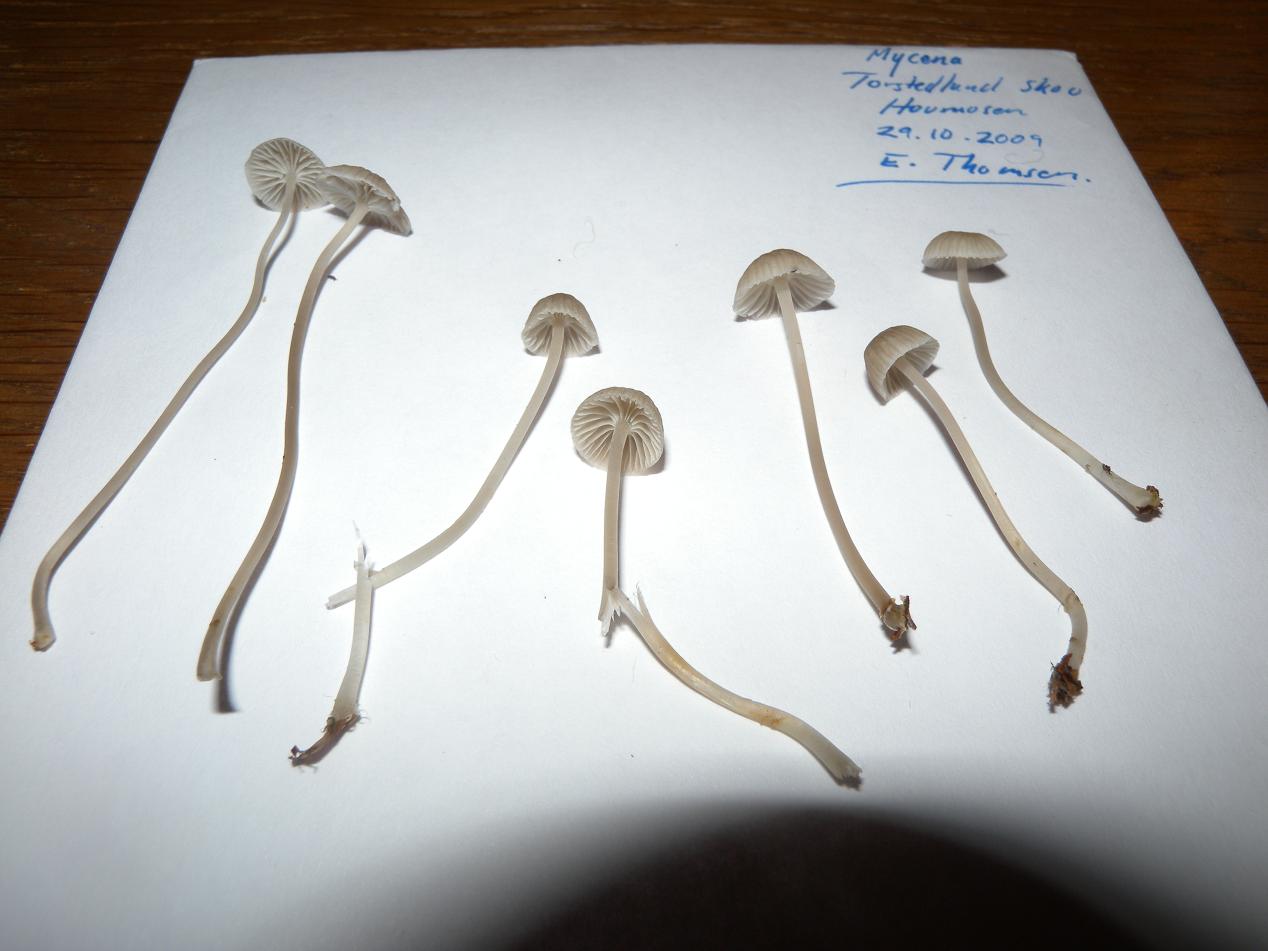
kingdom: Fungi
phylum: Basidiomycota
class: Agaricomycetes
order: Agaricales
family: Mycenaceae
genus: Mycena
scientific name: Mycena cinerella
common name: mel-huesvamp
